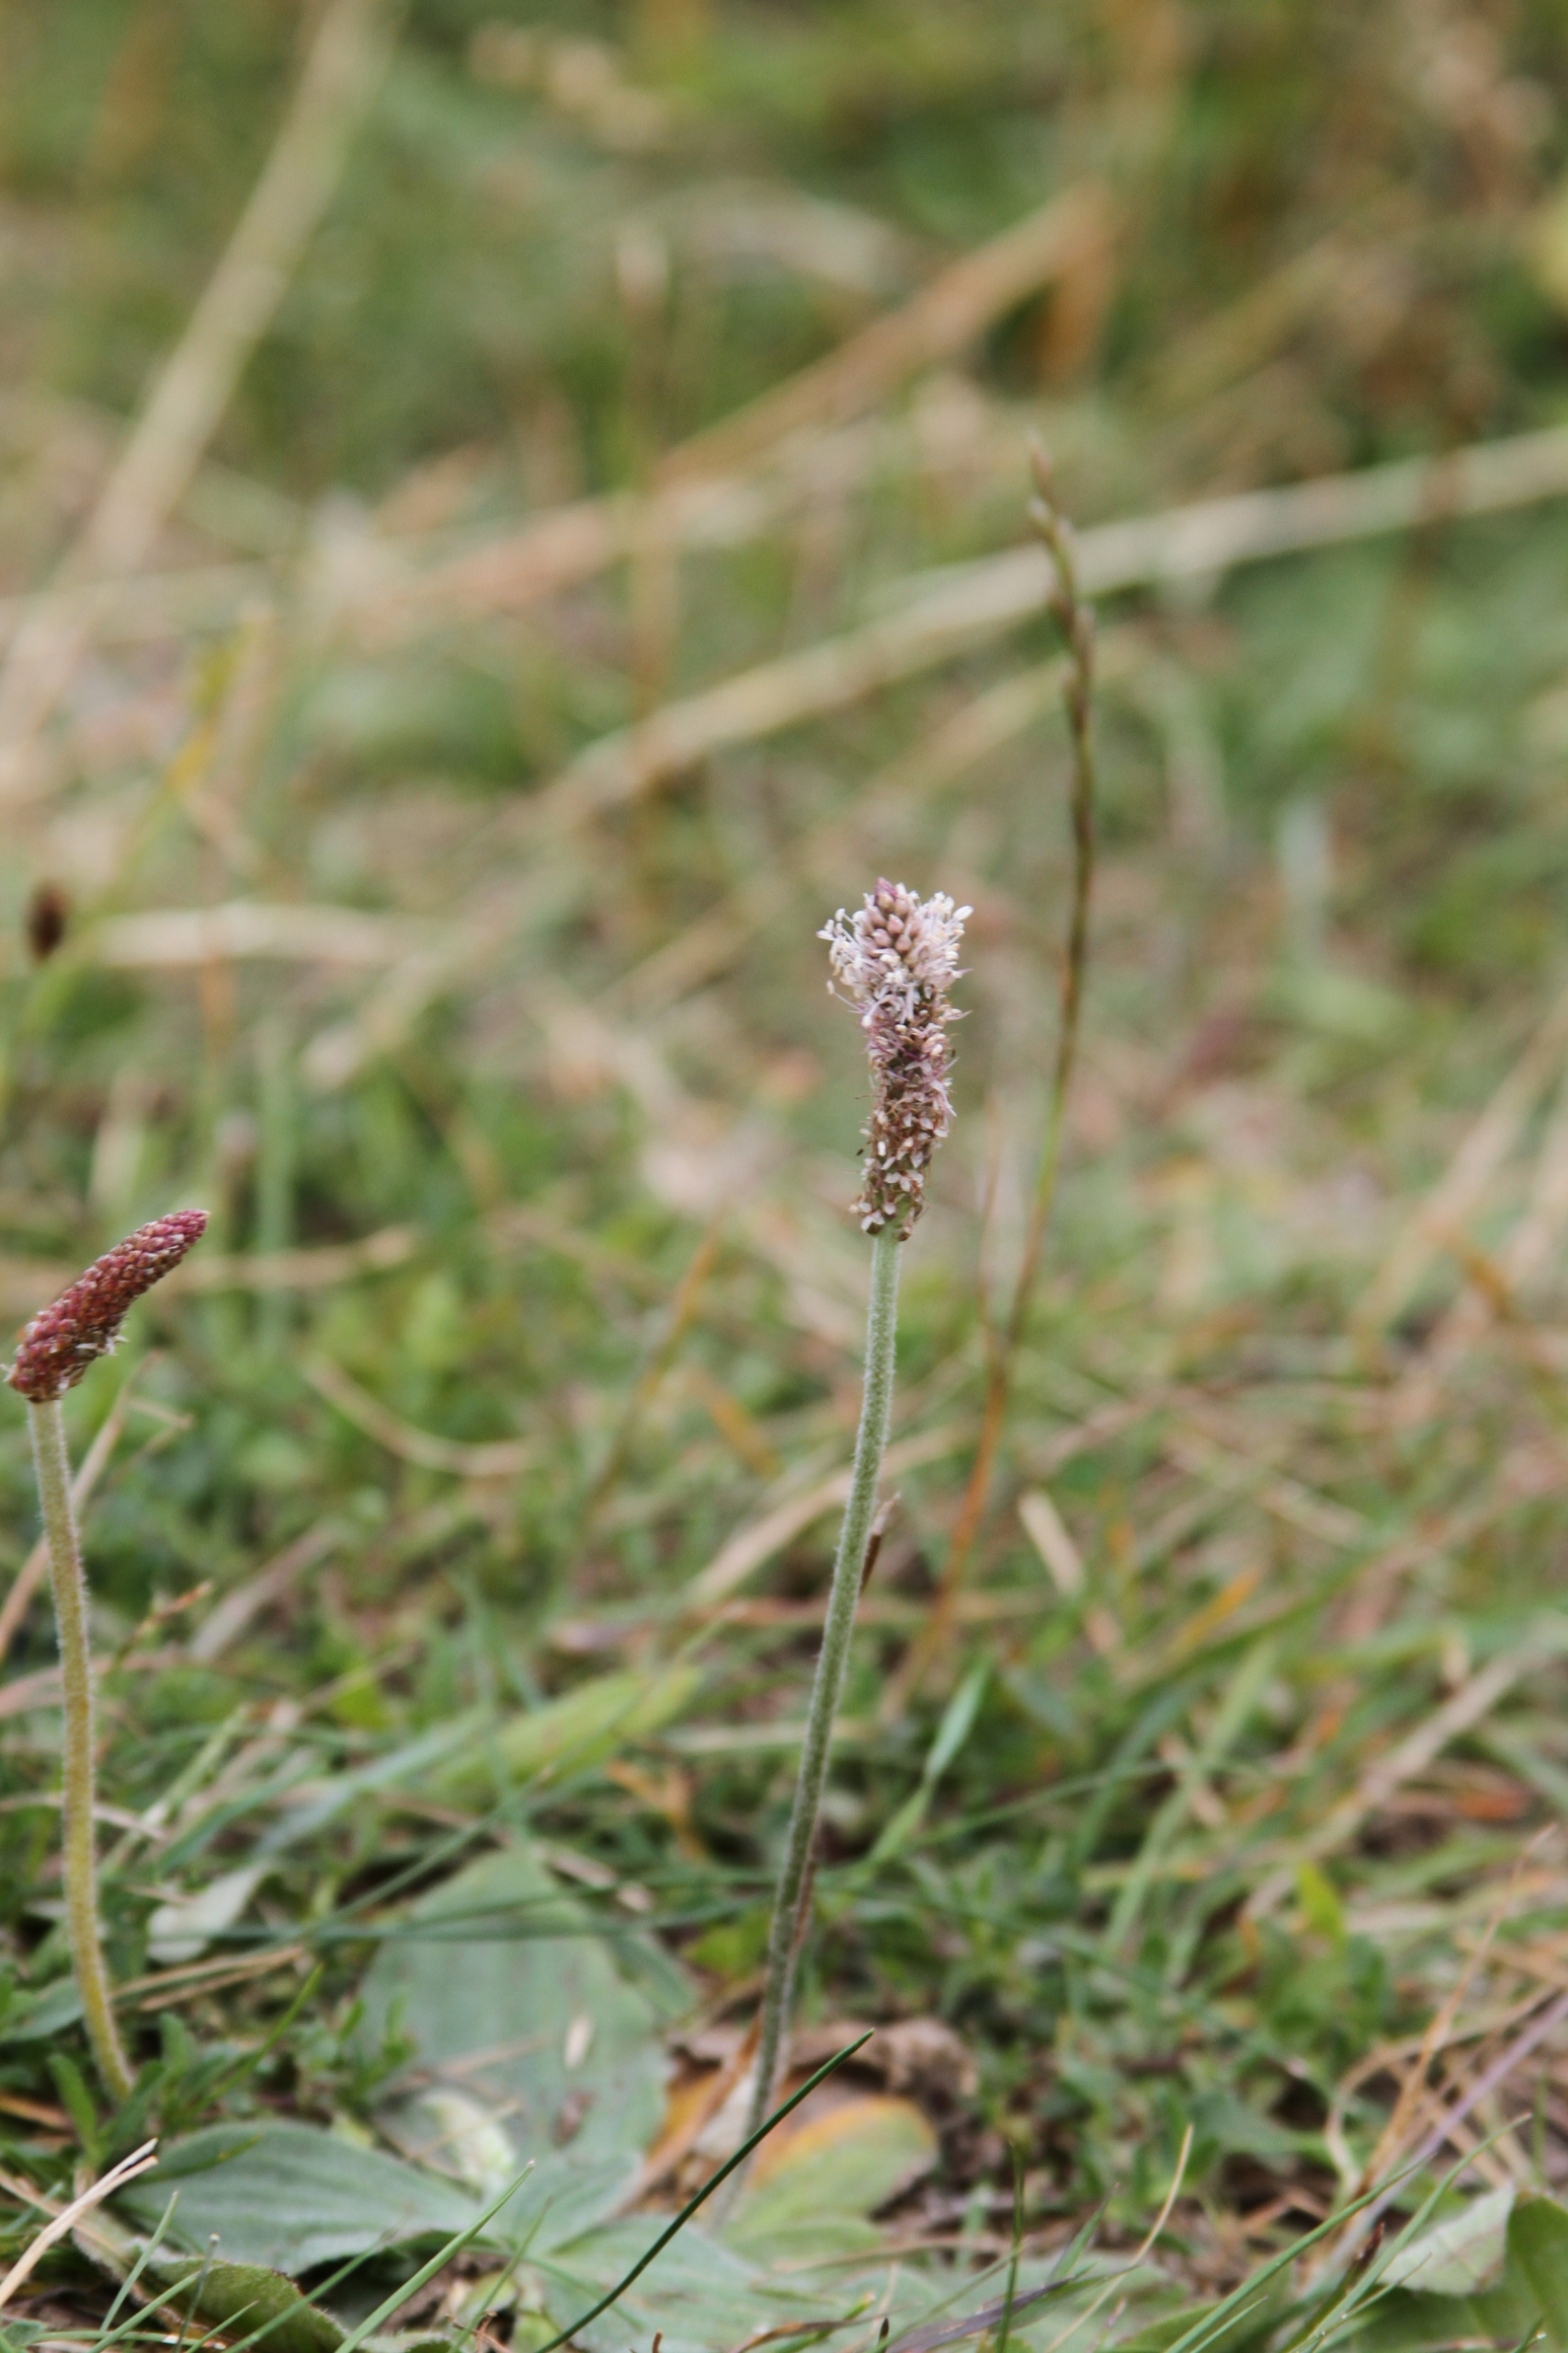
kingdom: Plantae
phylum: Tracheophyta
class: Magnoliopsida
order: Lamiales
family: Plantaginaceae
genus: Plantago
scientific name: Plantago media
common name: Dunet vejbred
